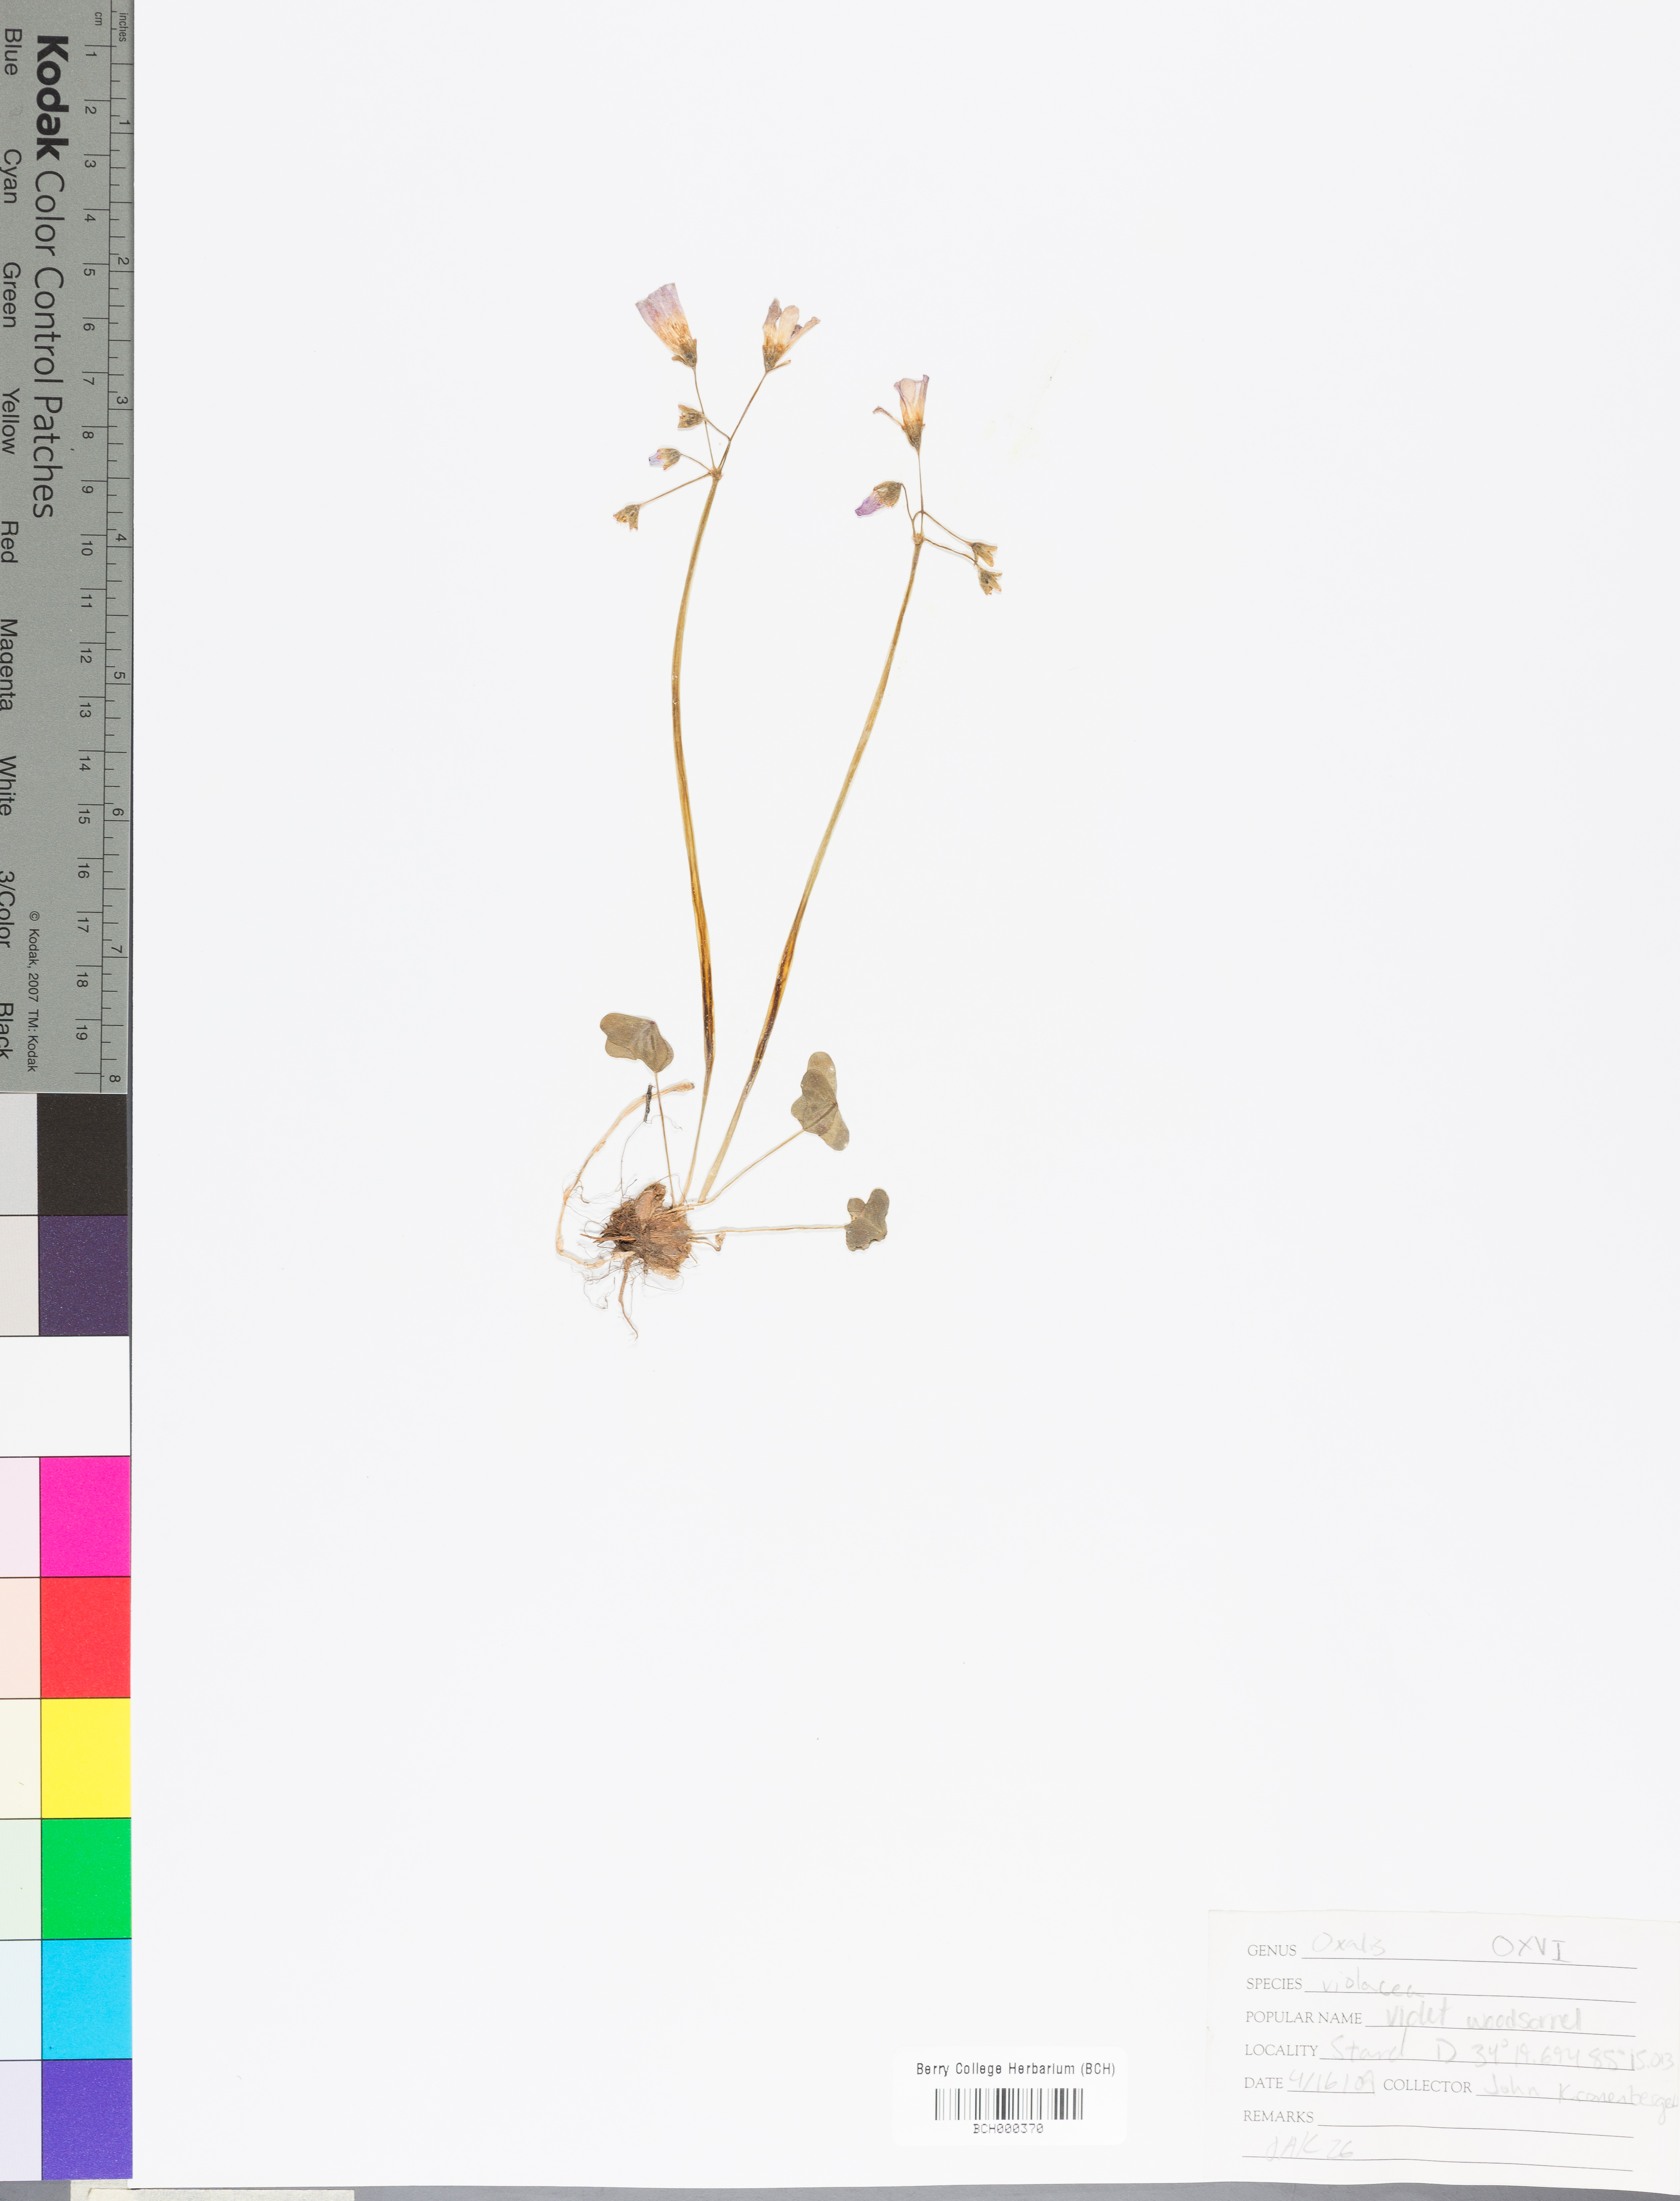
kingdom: Plantae
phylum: Tracheophyta
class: Magnoliopsida
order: Oxalidales
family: Oxalidaceae
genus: Oxalis
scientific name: Oxalis violacea
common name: Violet wood-sorrel
